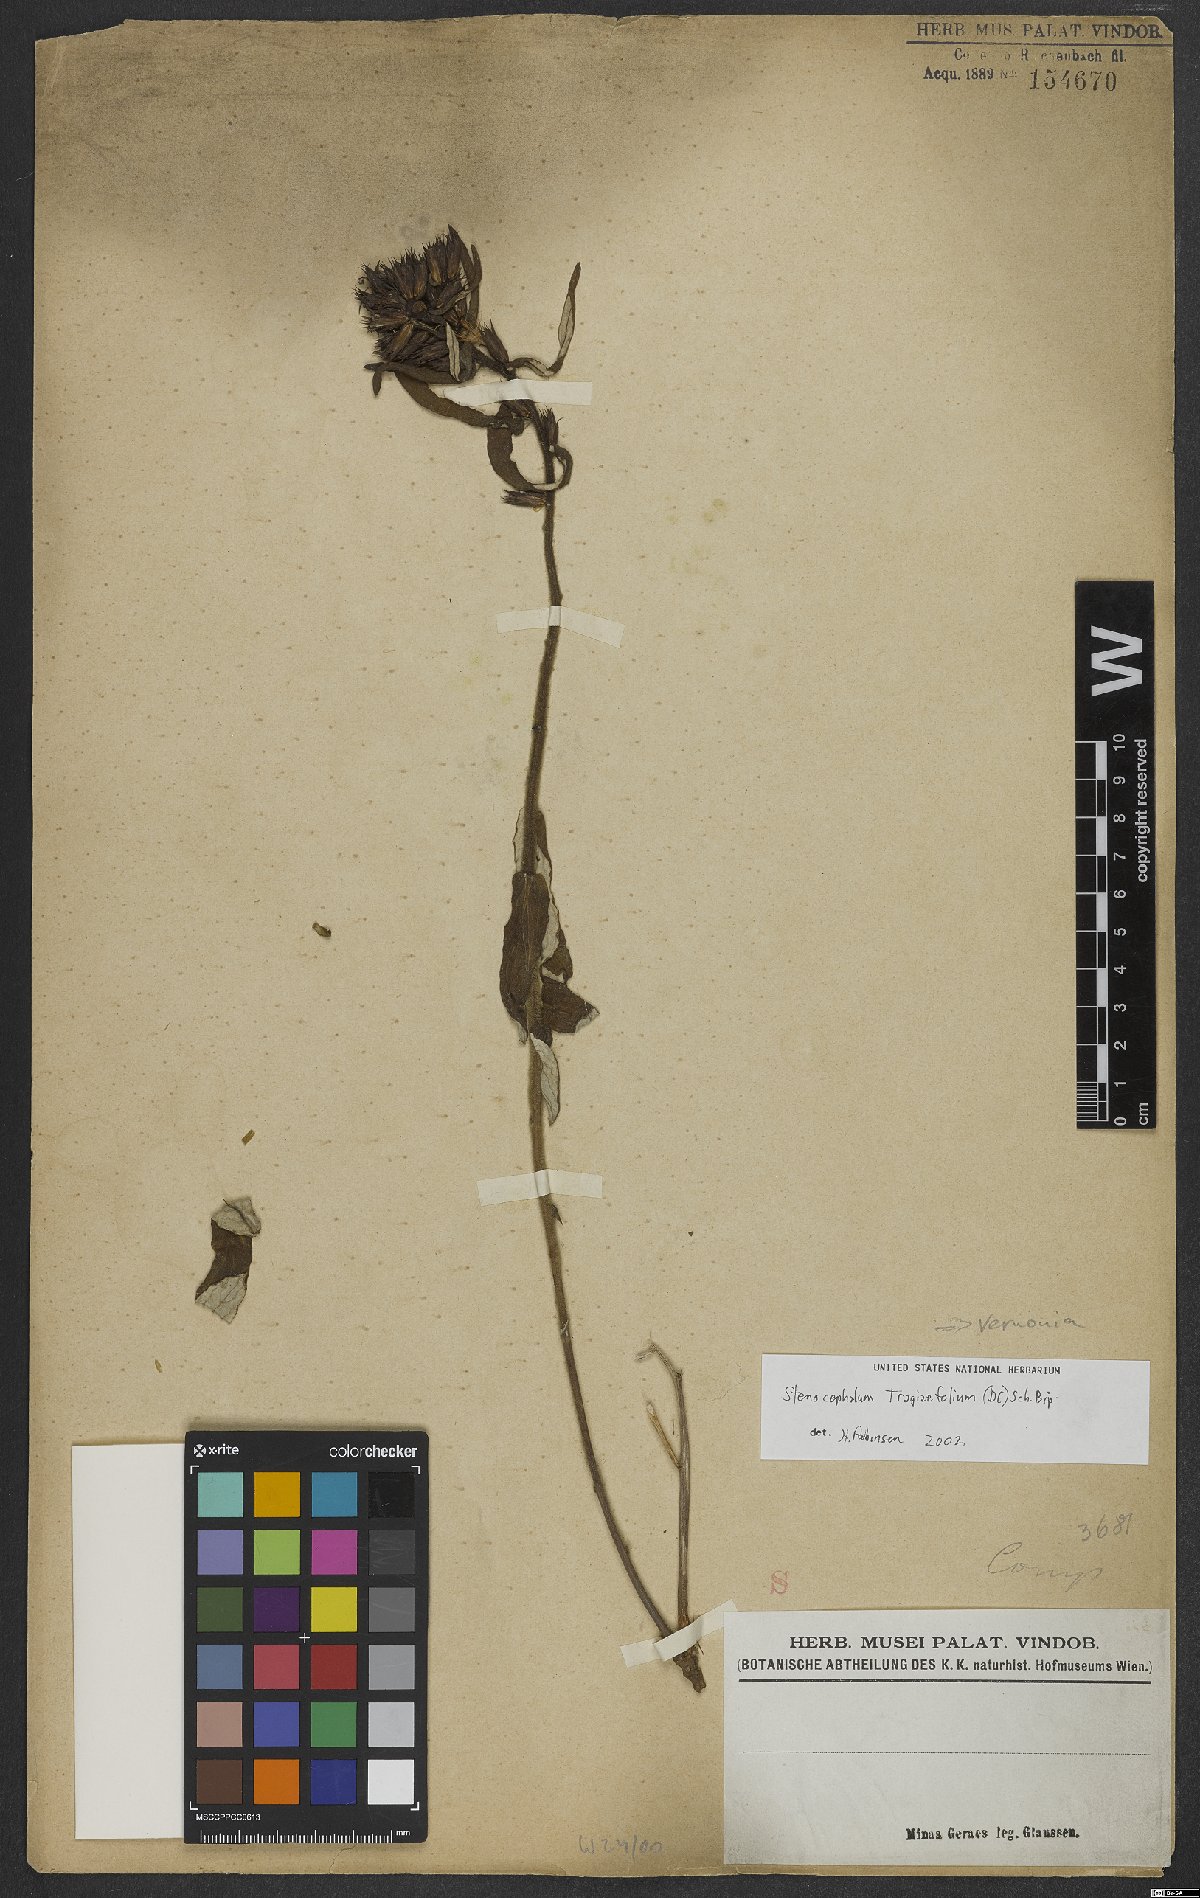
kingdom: Plantae
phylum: Tracheophyta
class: Magnoliopsida
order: Asterales
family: Asteraceae
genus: Stenocephalum
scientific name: Stenocephalum tragiifolium
